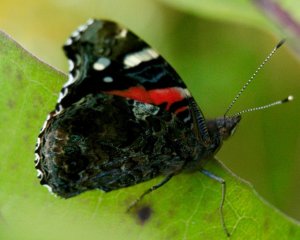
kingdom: Animalia
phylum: Arthropoda
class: Insecta
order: Lepidoptera
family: Nymphalidae
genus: Vanessa
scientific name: Vanessa atalanta
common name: Red Admiral
